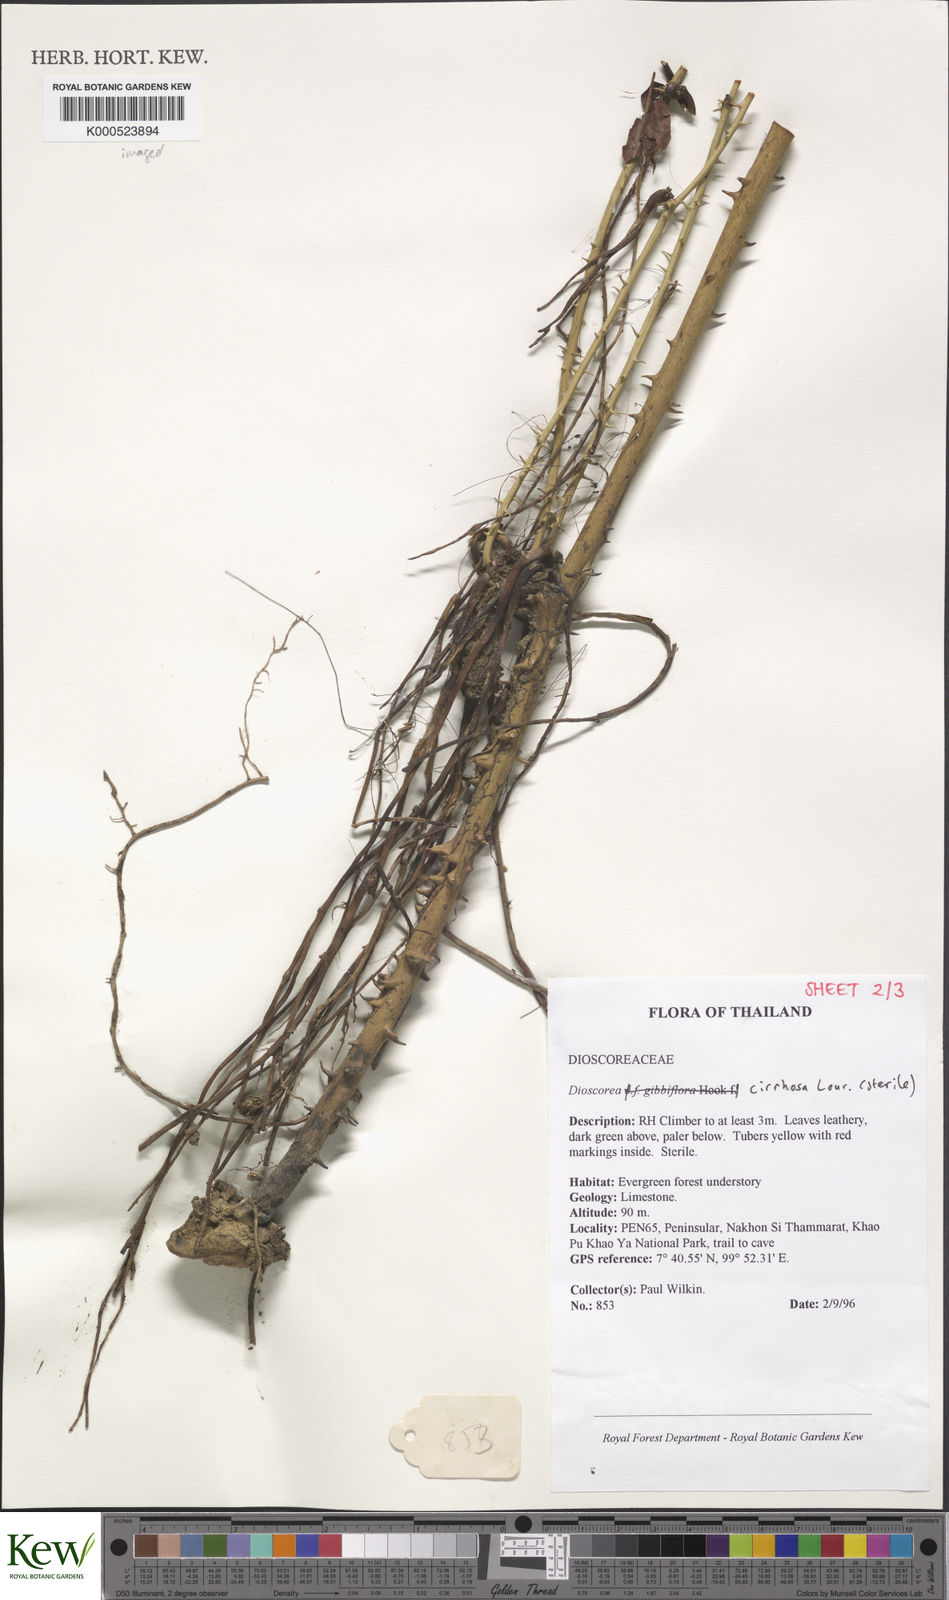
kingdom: Plantae
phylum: Tracheophyta
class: Liliopsida
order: Dioscoreales
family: Dioscoreaceae
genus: Dioscorea
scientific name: Dioscorea cirrhosa
